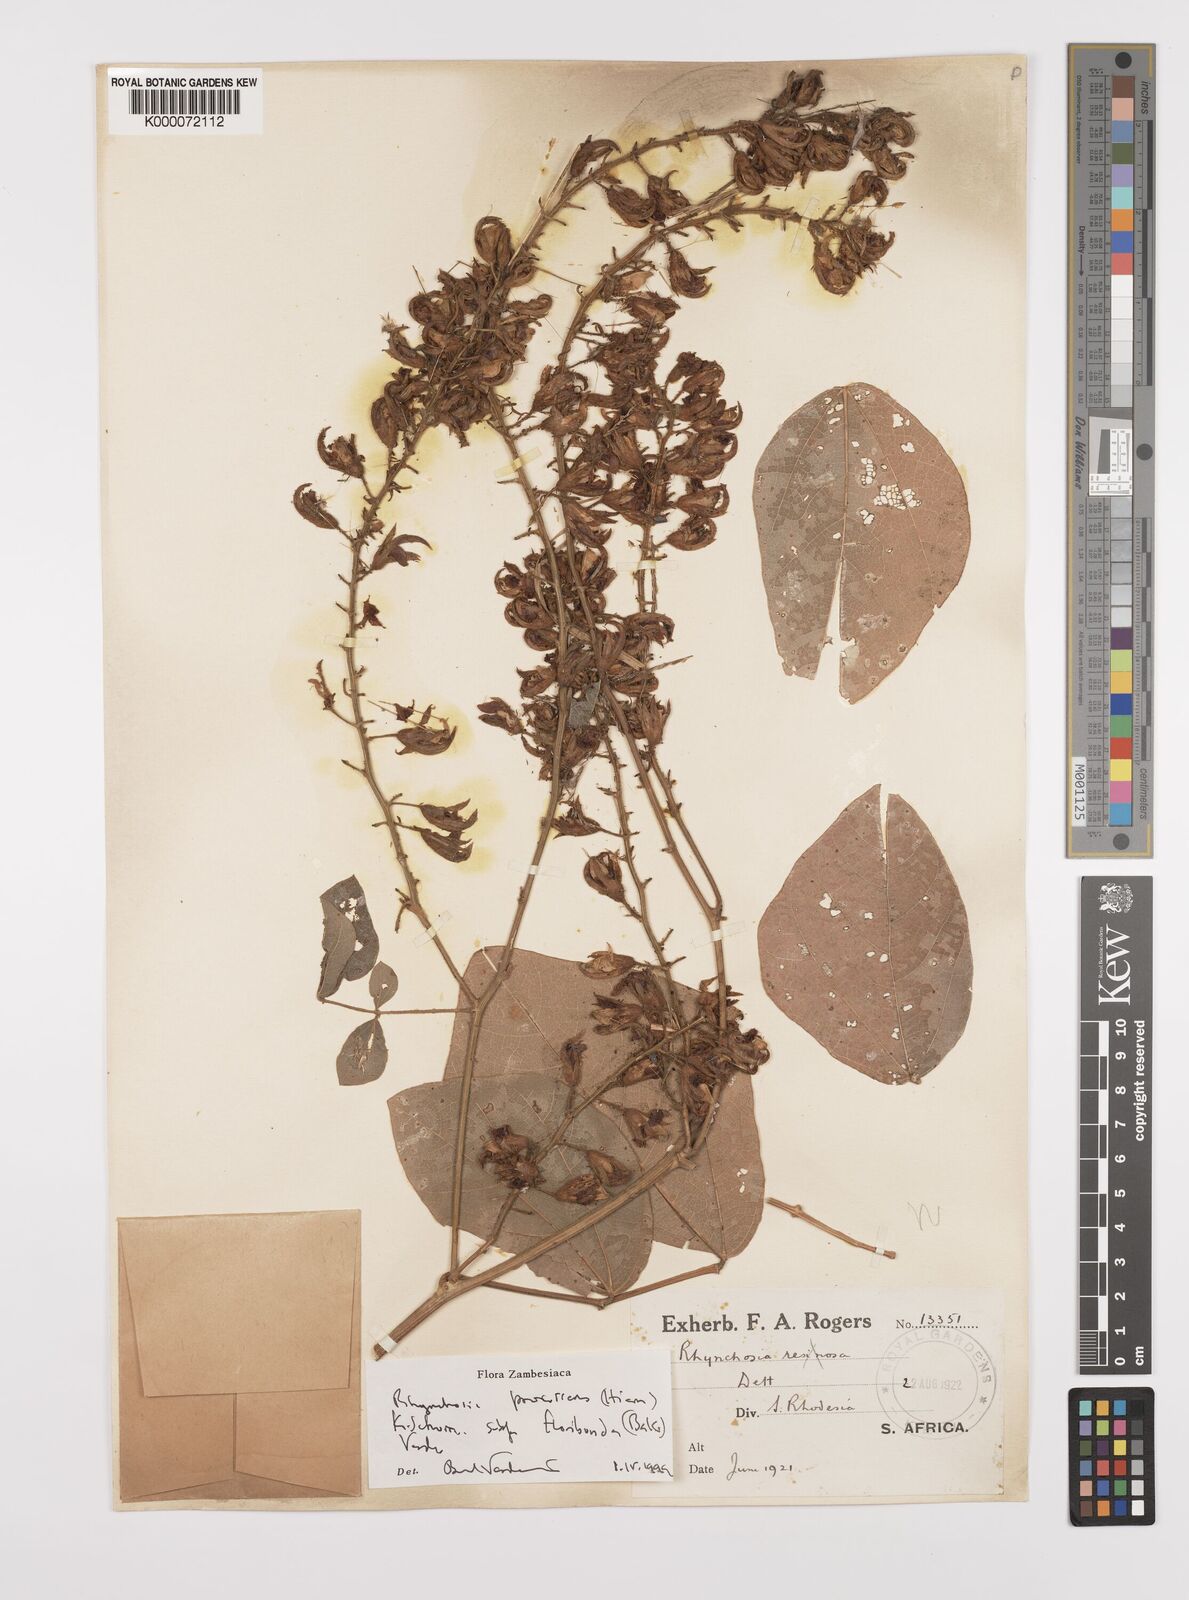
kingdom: Plantae
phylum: Tracheophyta
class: Magnoliopsida
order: Fabales
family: Fabaceae
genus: Rhynchosia
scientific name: Rhynchosia procurrens
